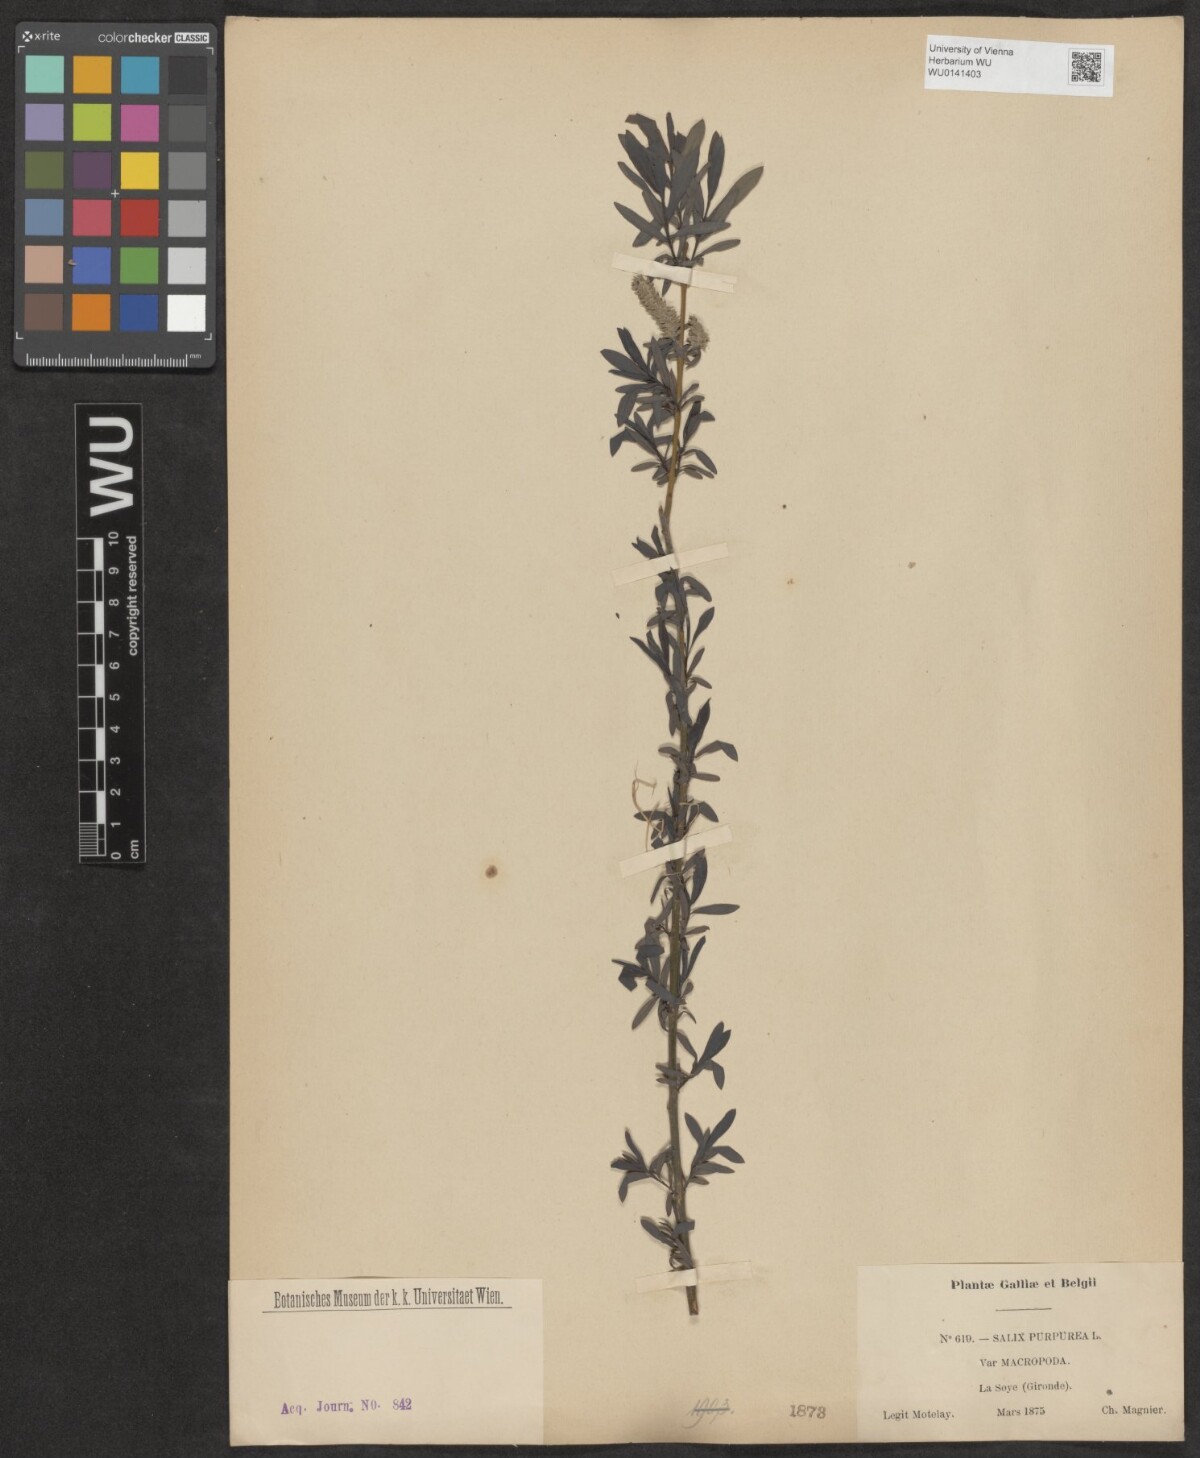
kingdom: Plantae
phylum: Tracheophyta
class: Magnoliopsida
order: Malpighiales
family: Salicaceae
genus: Salix
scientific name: Salix purpurea
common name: Purple willow
